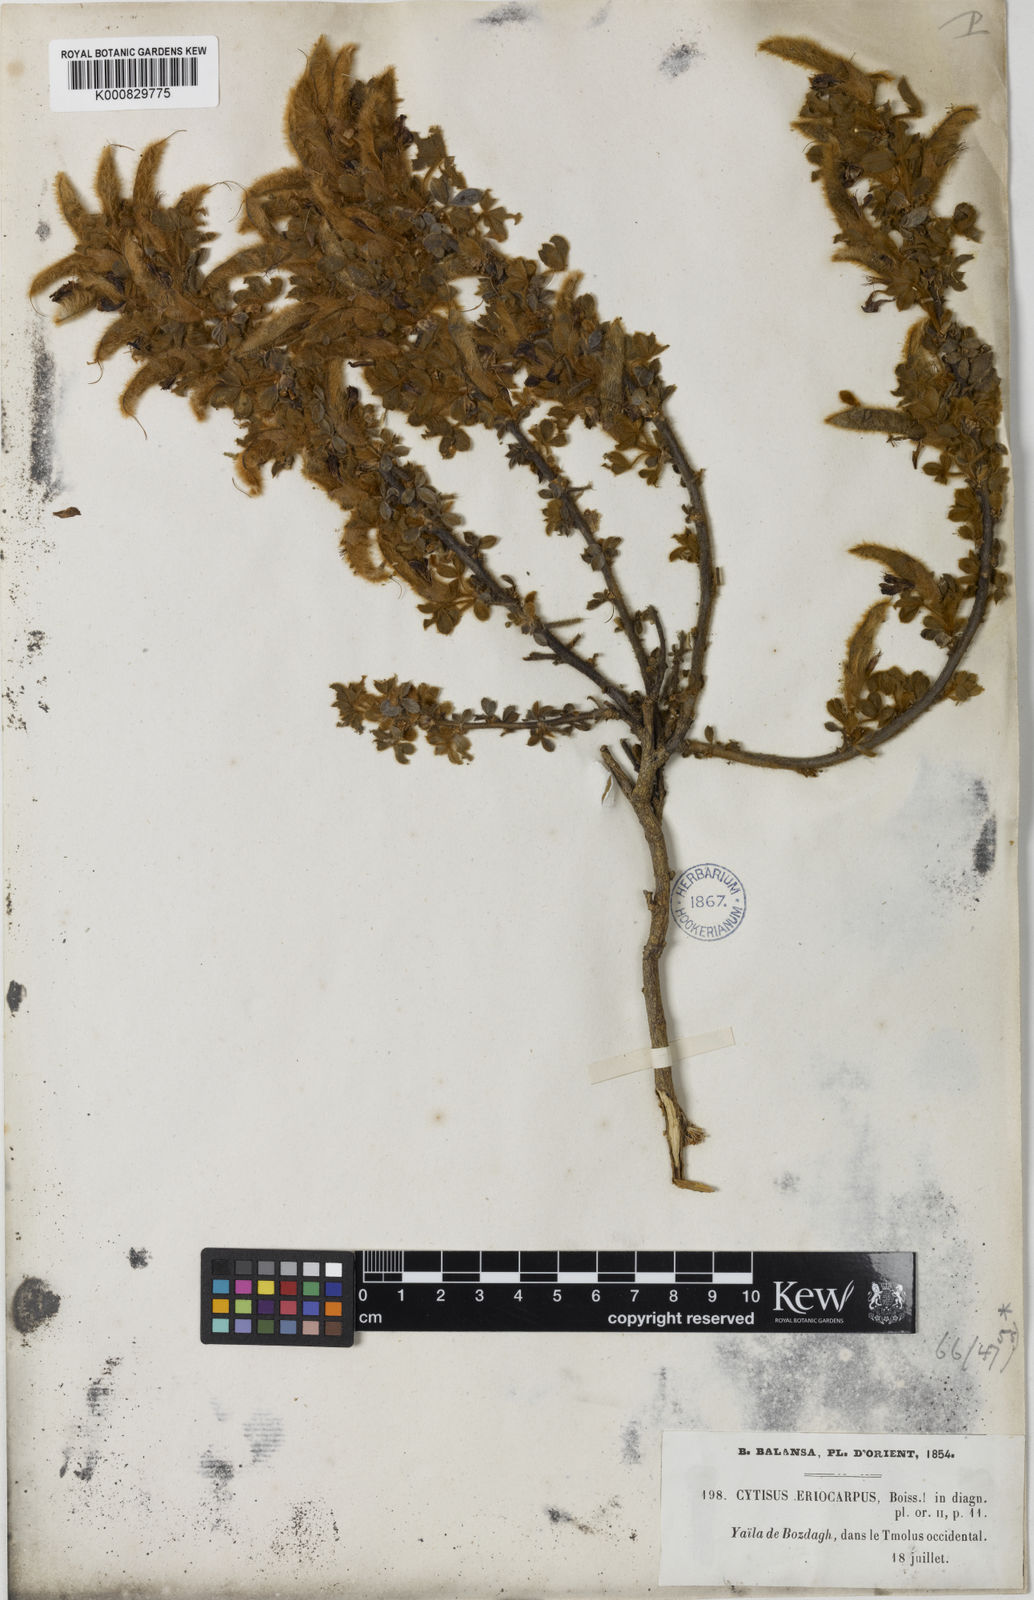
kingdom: Plantae
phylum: Tracheophyta
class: Magnoliopsida
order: Fabales
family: Fabaceae
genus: Chamaecytisus
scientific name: Chamaecytisus eriocarpus
